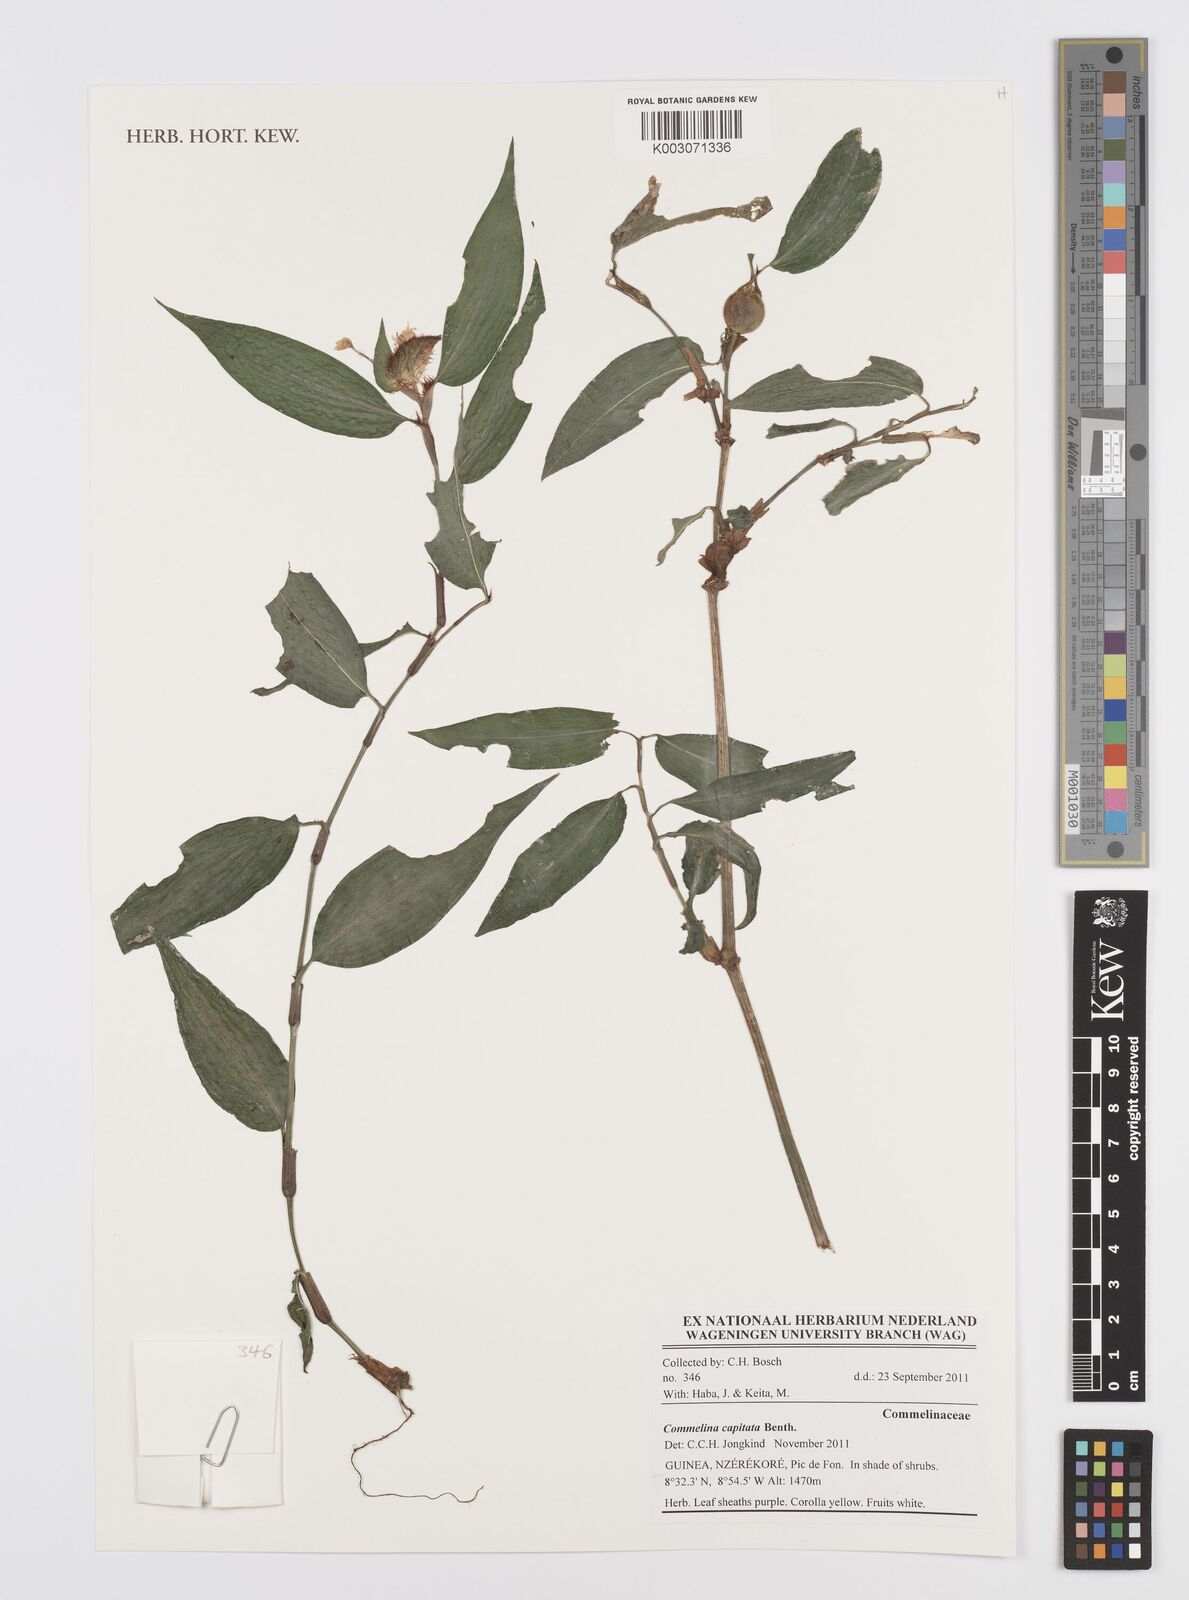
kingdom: Plantae
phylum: Tracheophyta
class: Liliopsida
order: Commelinales
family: Commelinaceae
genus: Commelina
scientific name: Commelina capitata
